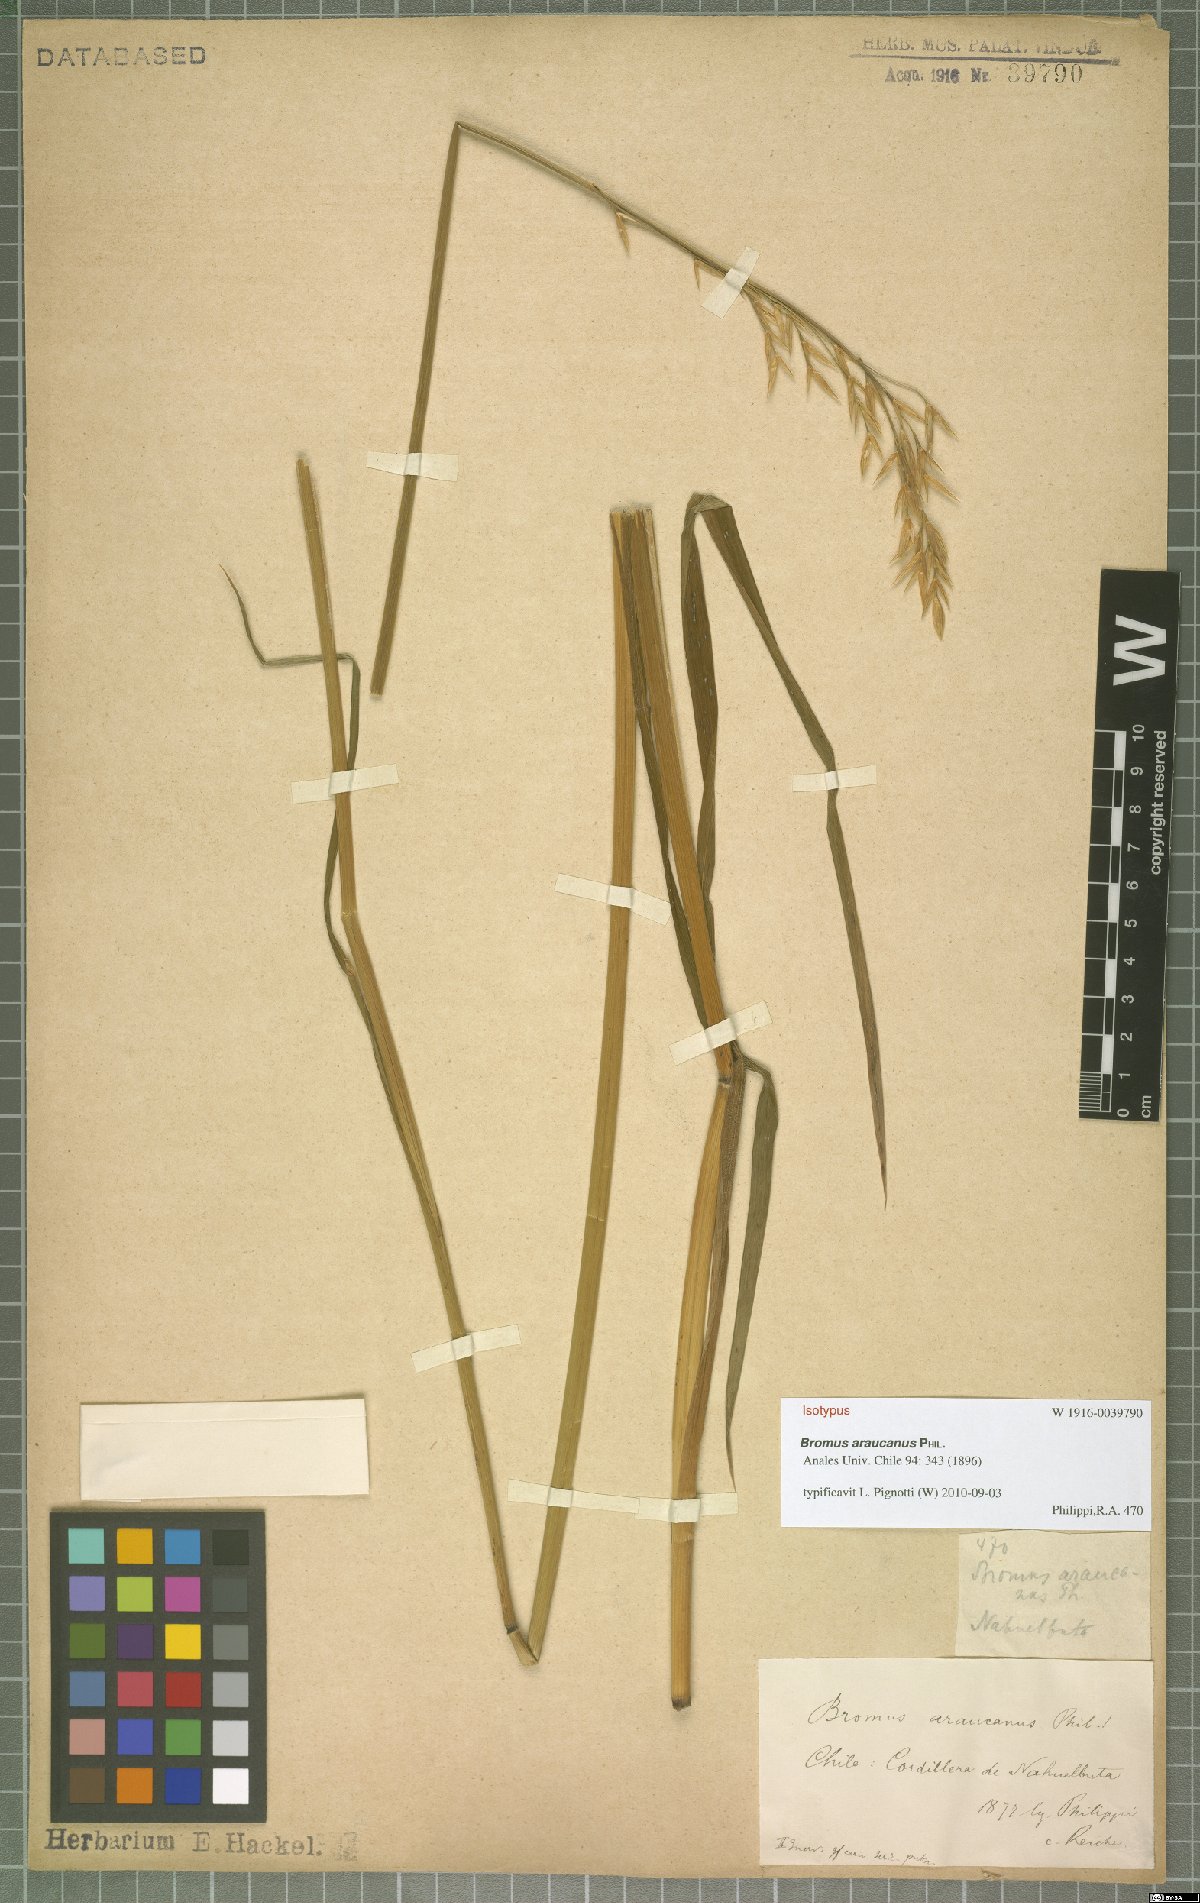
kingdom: Plantae
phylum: Tracheophyta
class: Liliopsida
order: Poales
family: Poaceae
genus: Bromus
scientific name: Bromus araucanus
